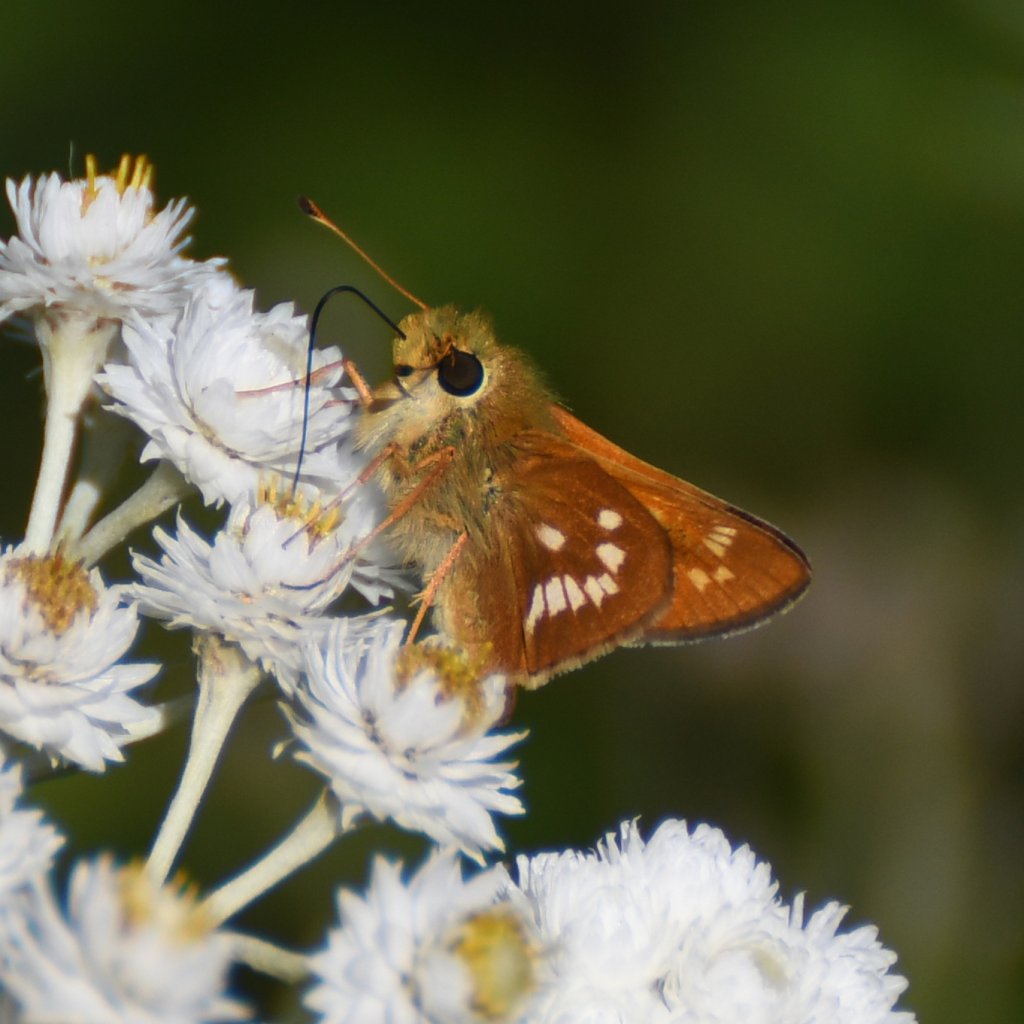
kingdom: Animalia
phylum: Arthropoda
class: Insecta
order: Lepidoptera
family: Hesperiidae
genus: Hesperia
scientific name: Hesperia leonardus
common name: Leonard's Skipper
